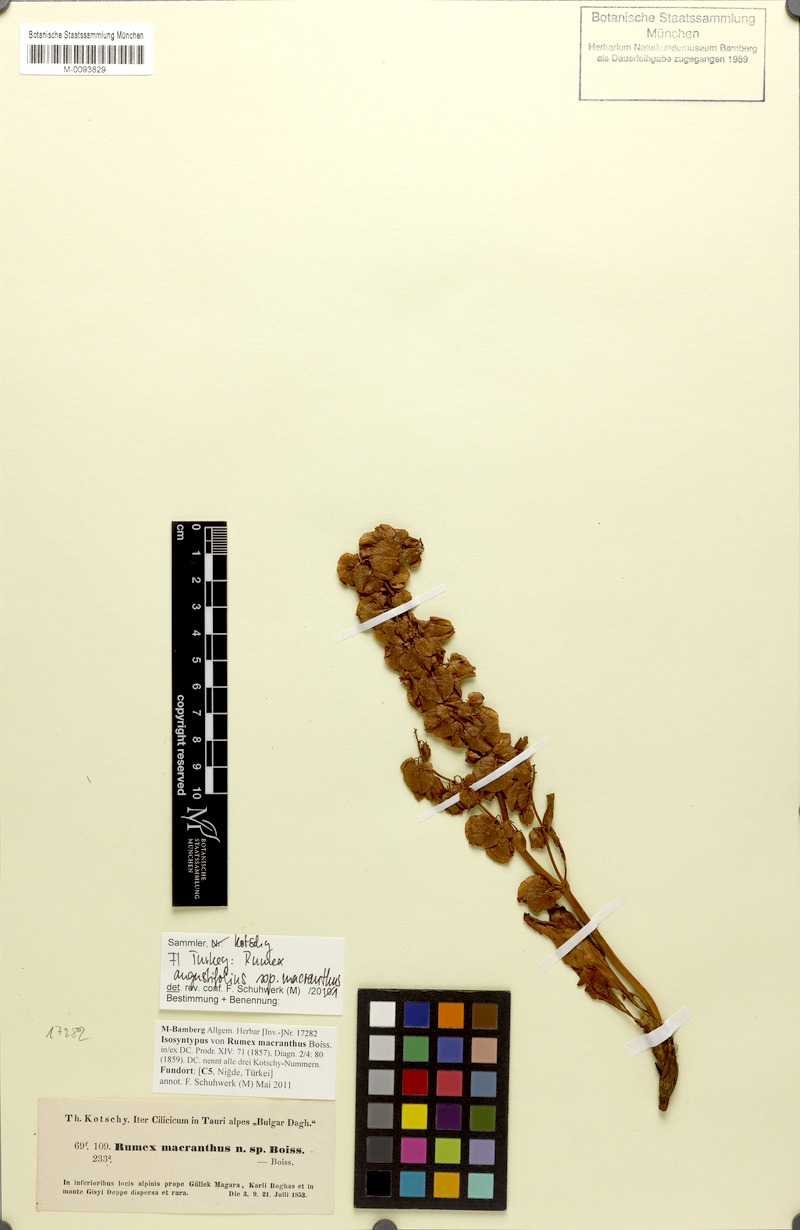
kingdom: Plantae
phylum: Tracheophyta
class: Magnoliopsida
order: Caryophyllales
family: Polygonaceae
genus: Rumex
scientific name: Rumex angustifolius
